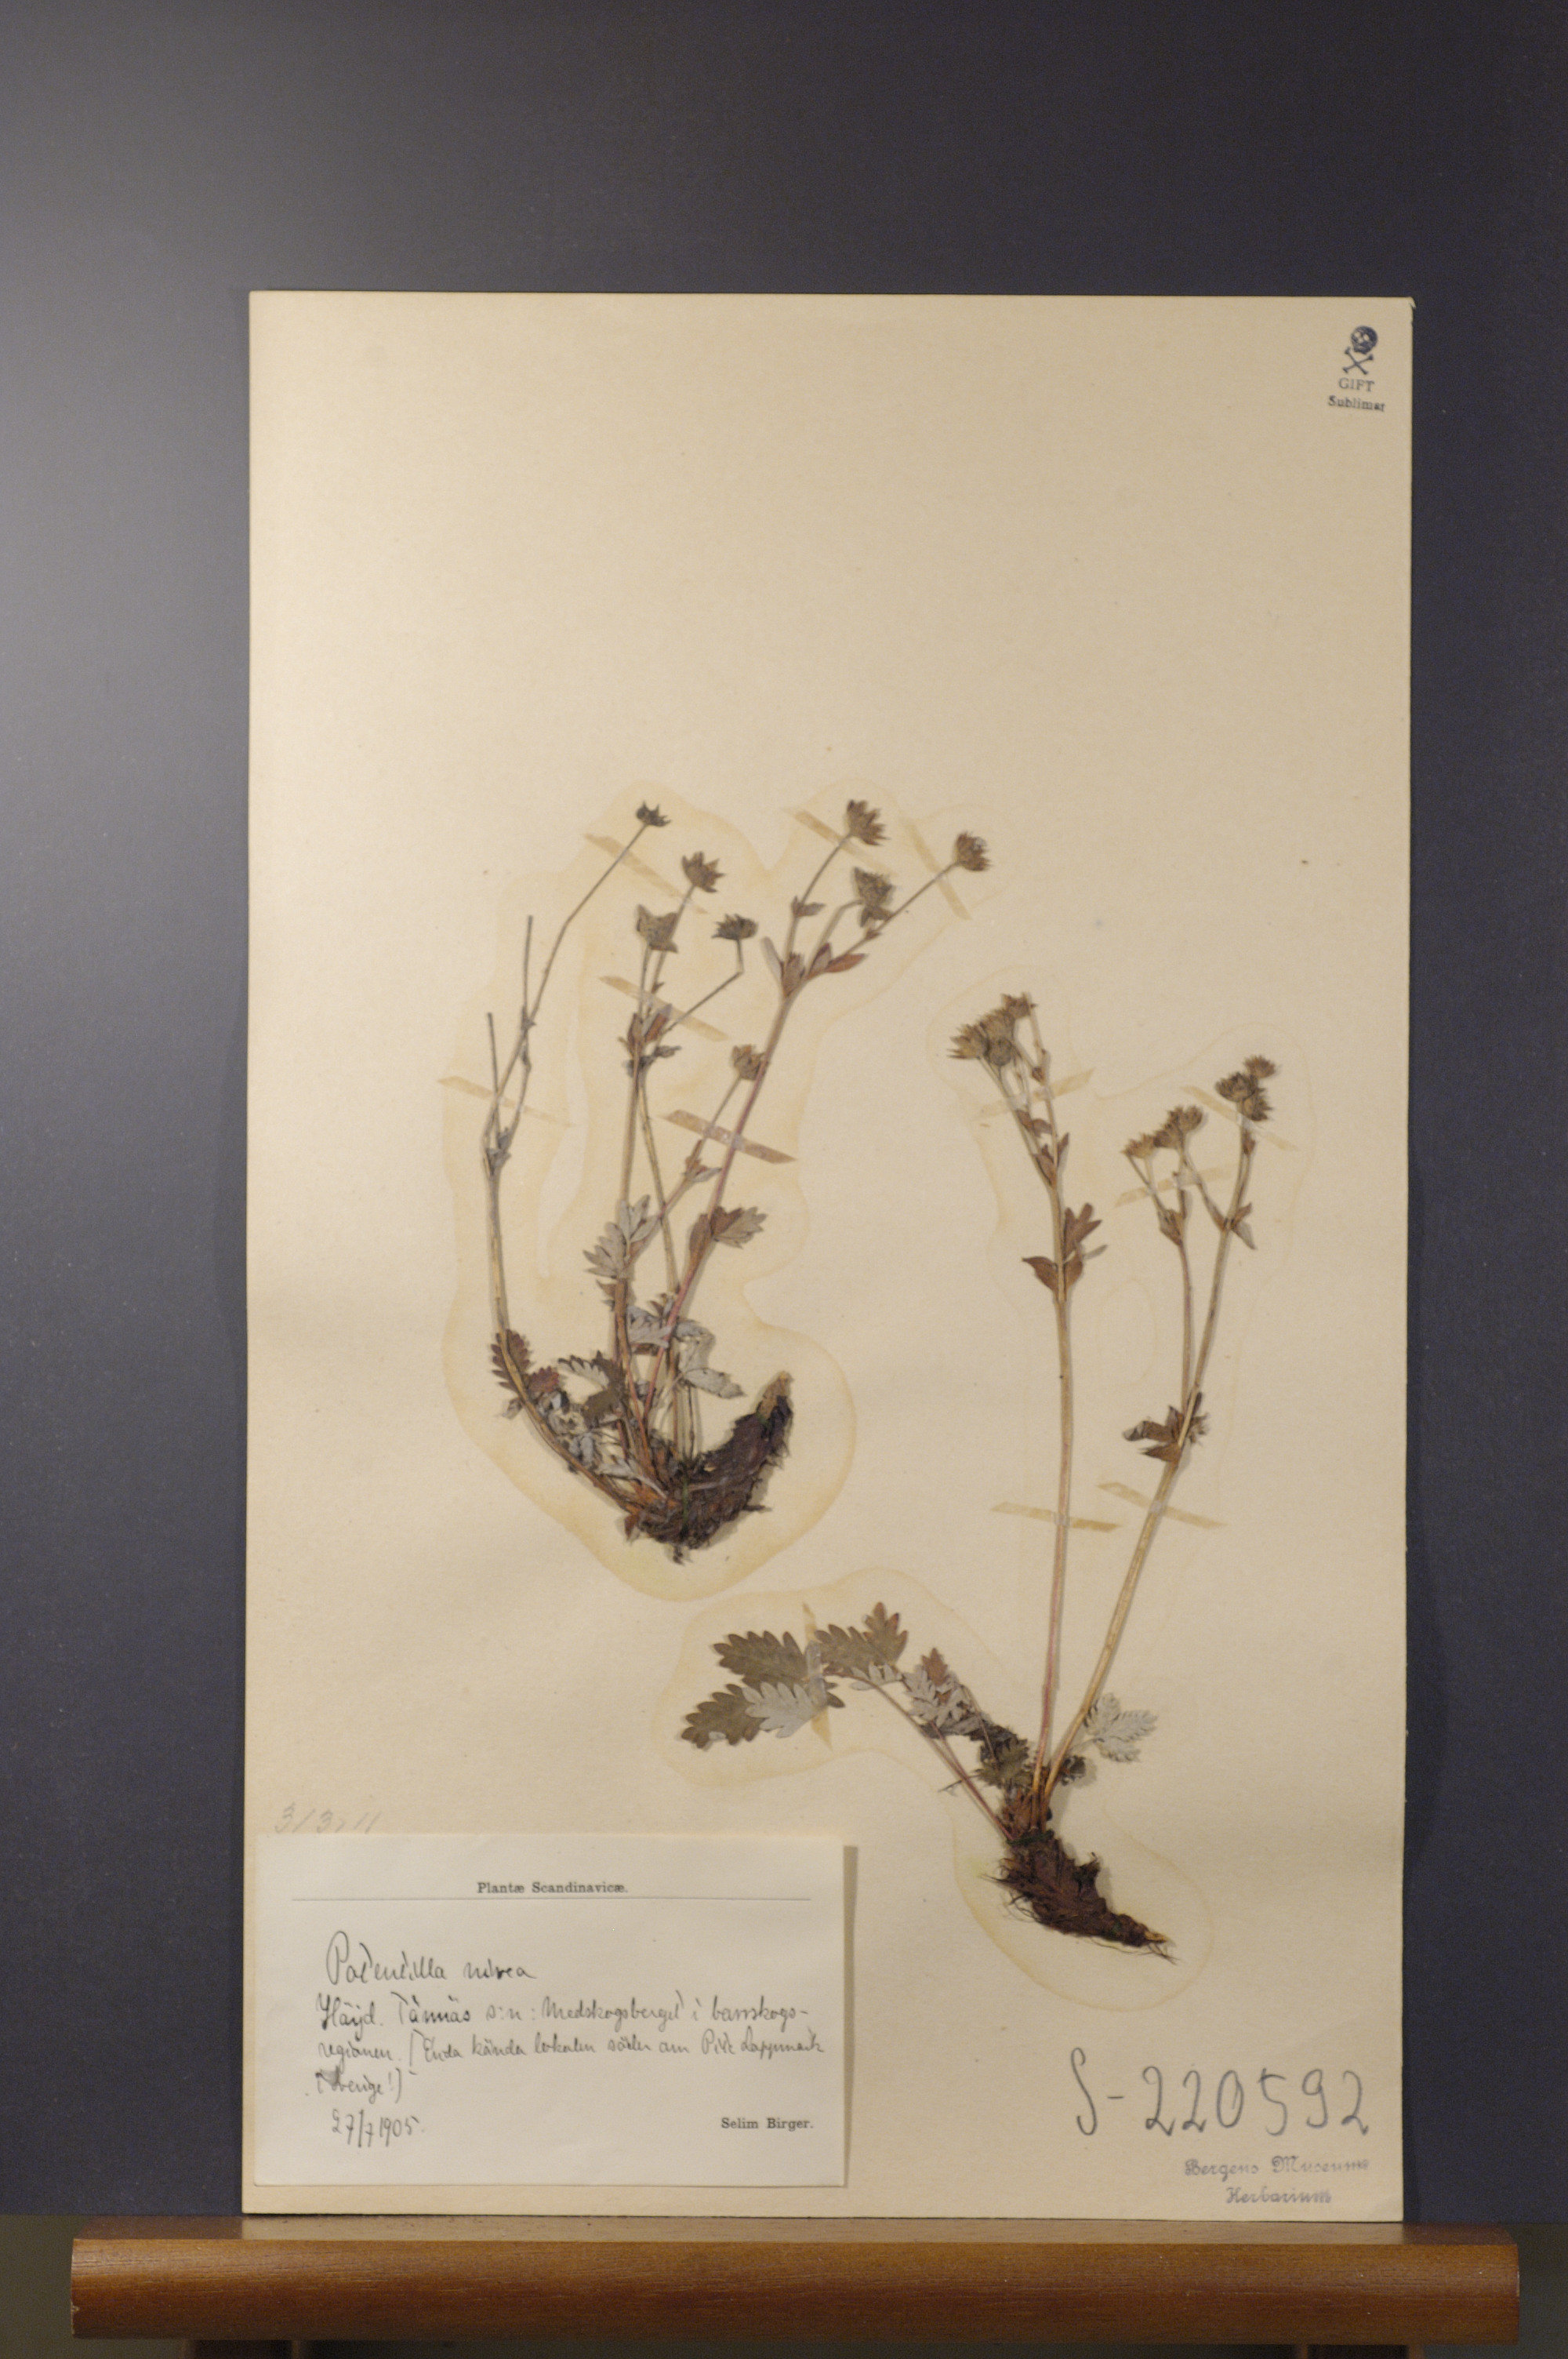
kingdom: Plantae
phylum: Tracheophyta
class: Magnoliopsida
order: Rosales
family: Rosaceae
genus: Potentilla
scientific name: Potentilla arenosa
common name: Bluff cinquefoil
